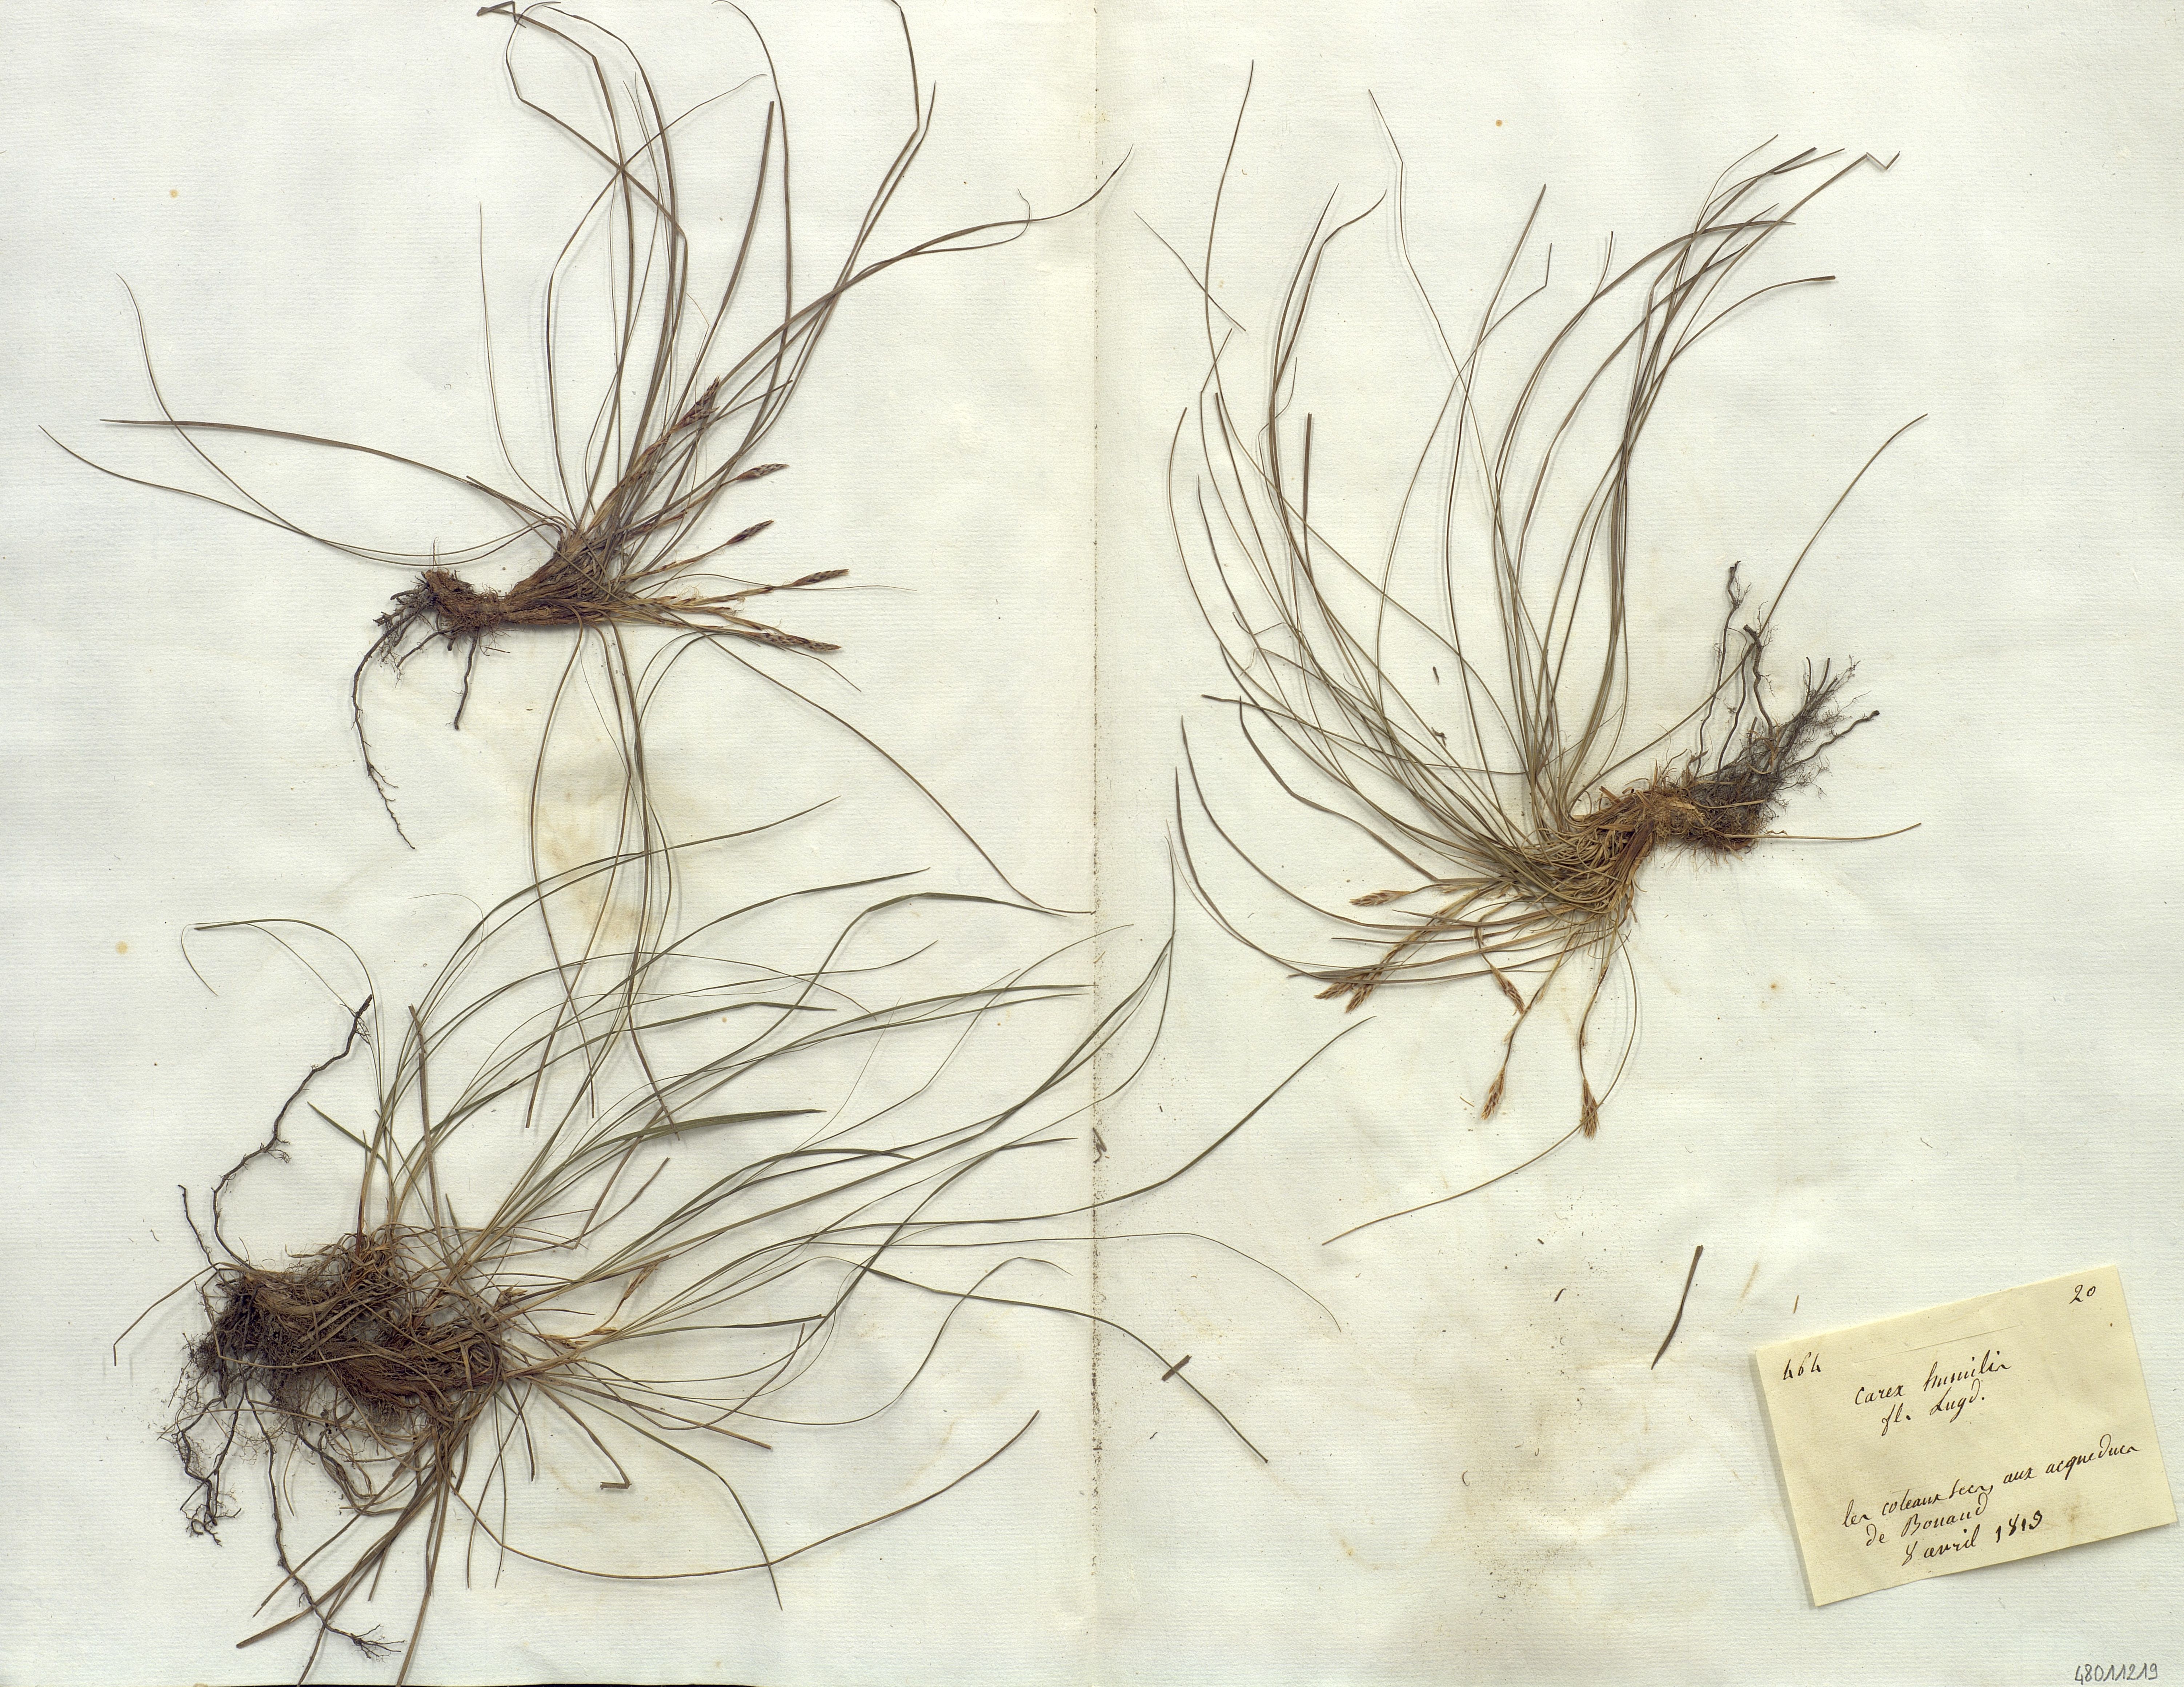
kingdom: Plantae
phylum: Tracheophyta
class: Liliopsida
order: Poales
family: Cyperaceae
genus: Carex
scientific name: Carex humilis
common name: Dwarf sedge
